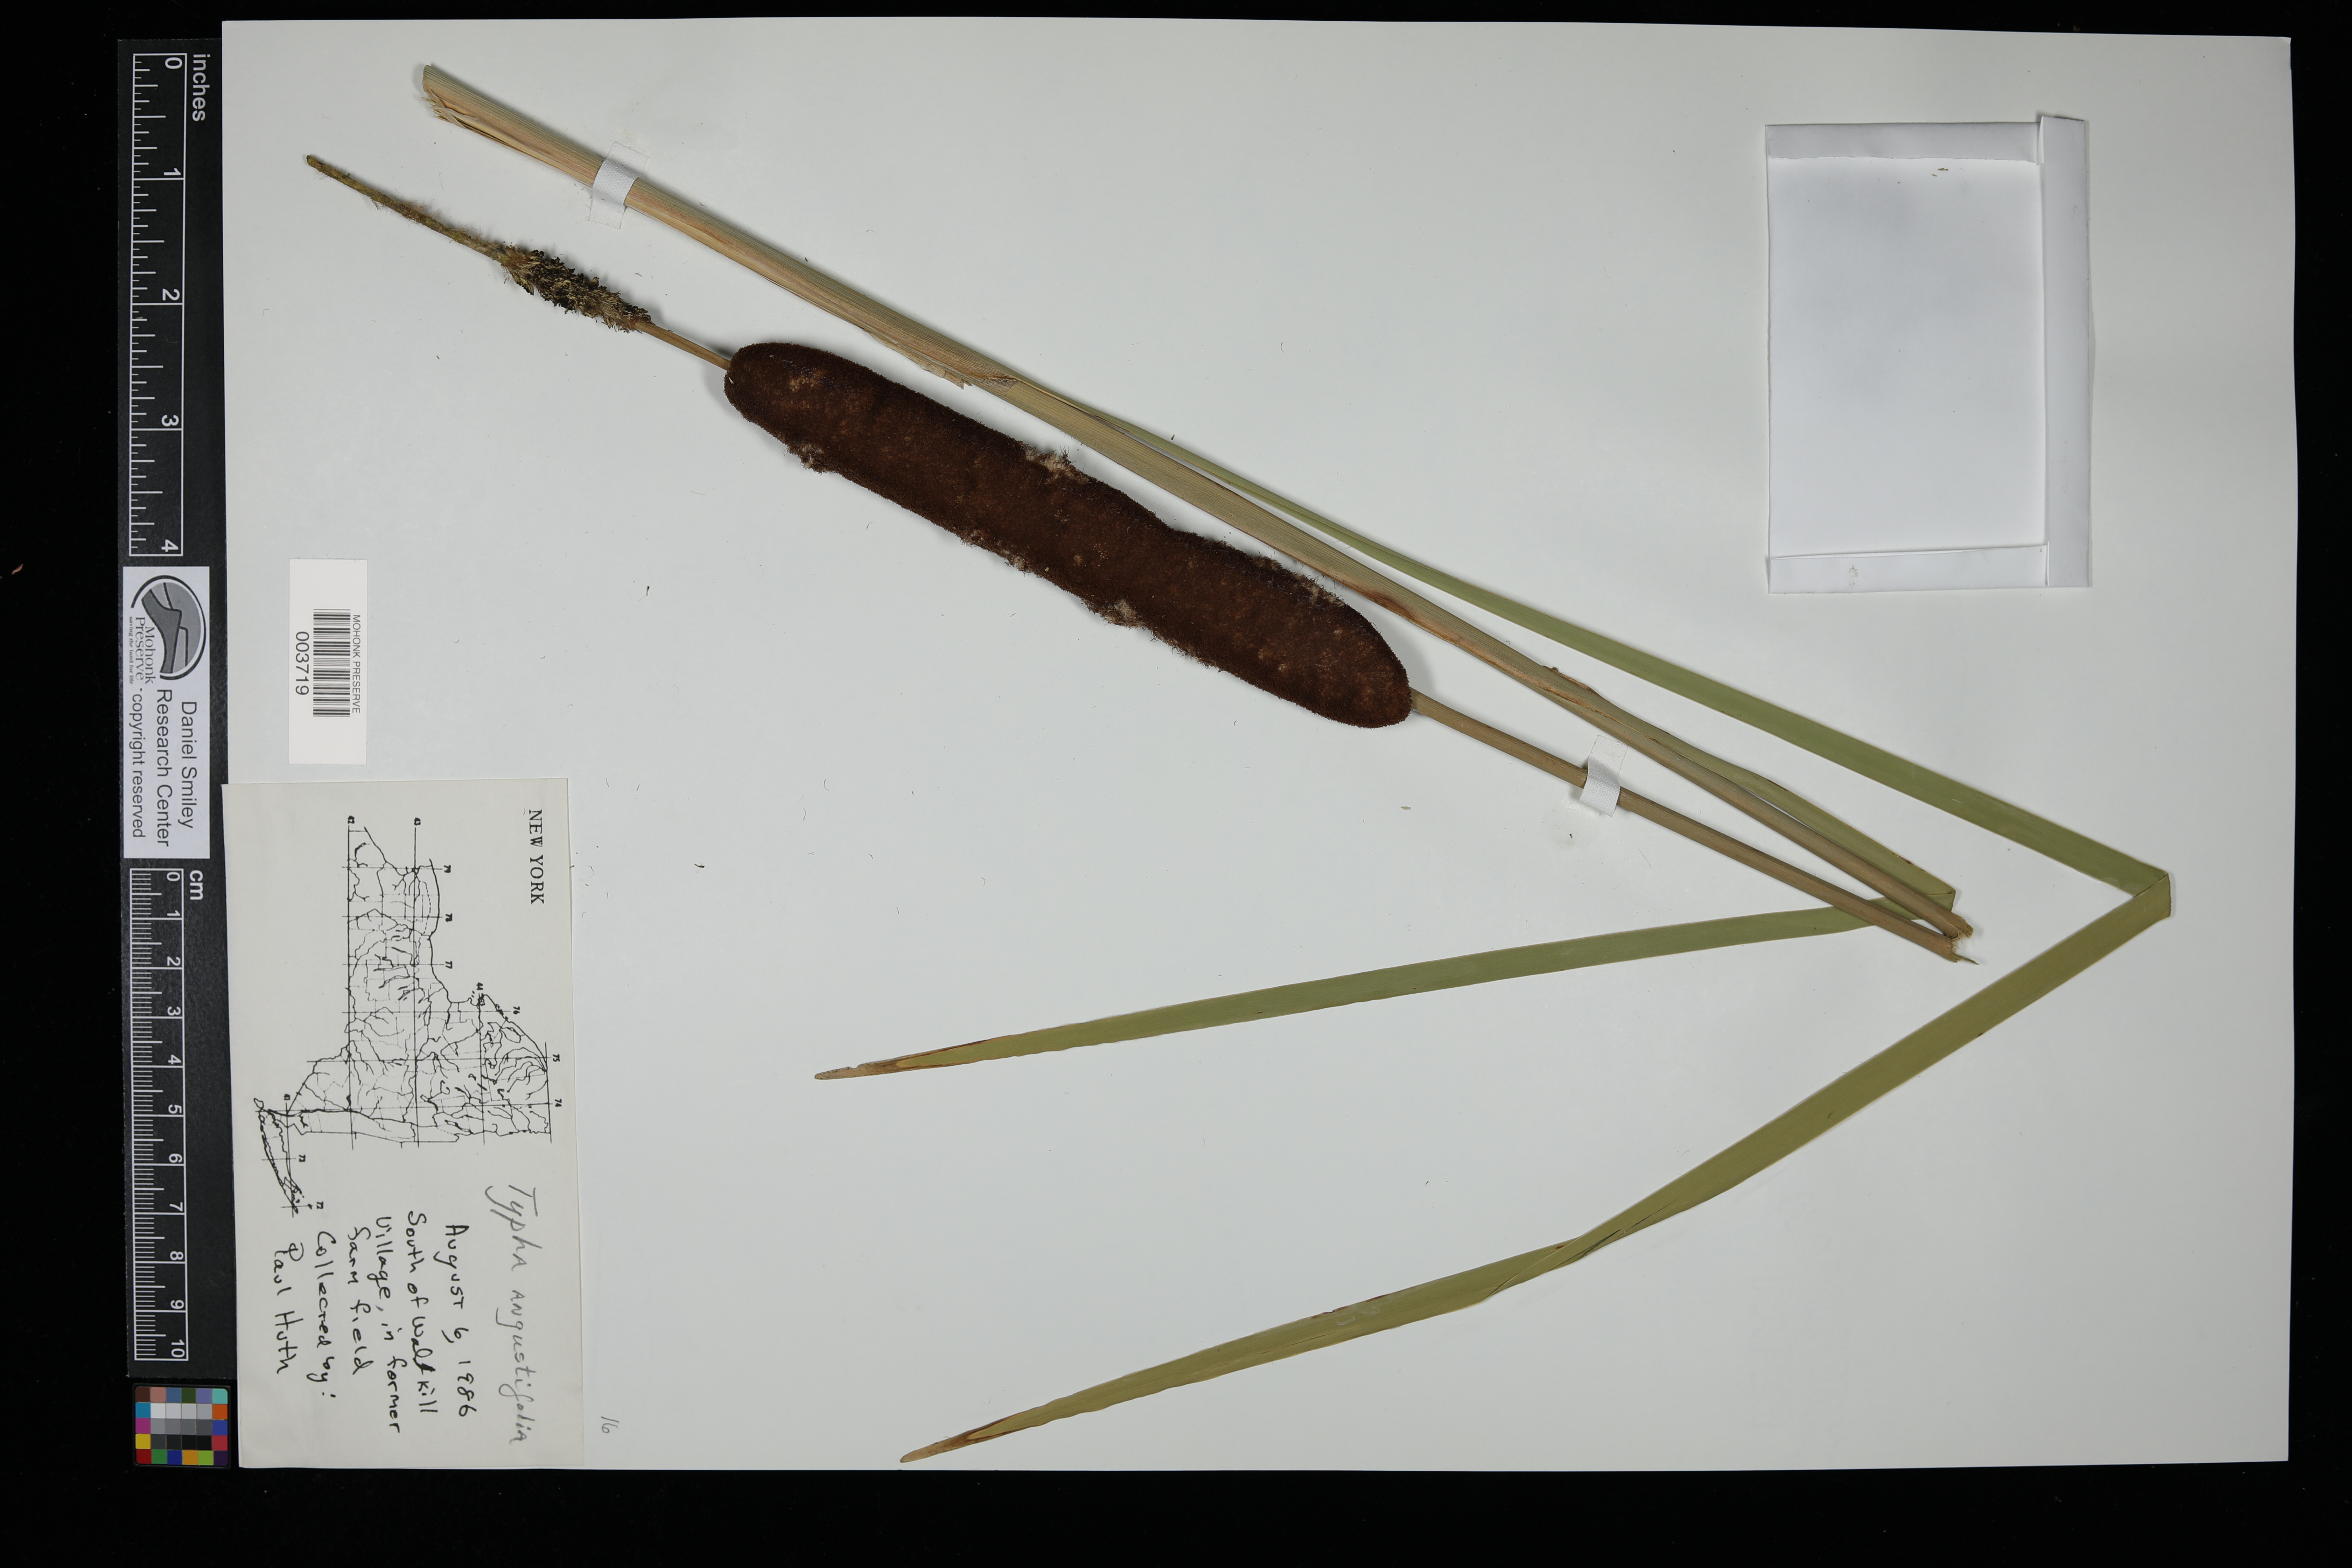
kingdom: Plantae
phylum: Tracheophyta
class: Liliopsida
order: Poales
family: Typhaceae
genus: Typha
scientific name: Typha angustifolia
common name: Lesser bulrush
